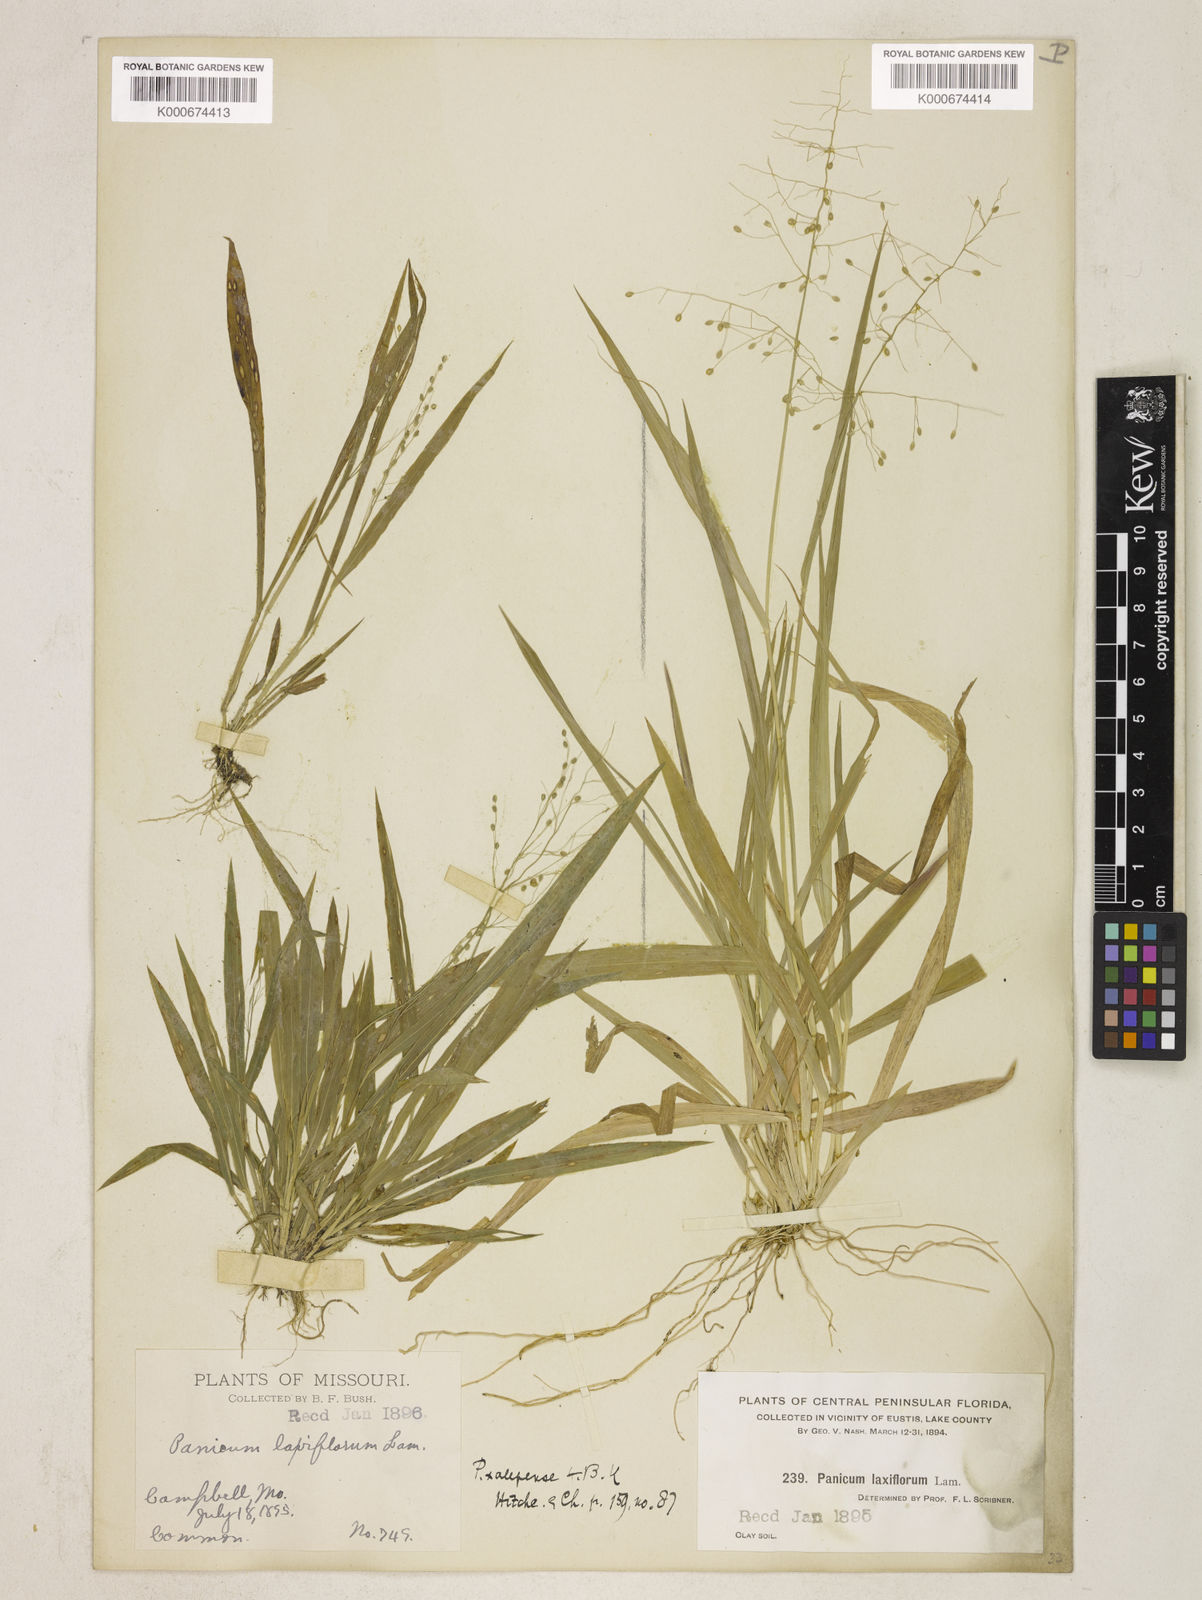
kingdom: Plantae
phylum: Tracheophyta
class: Liliopsida
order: Poales
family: Poaceae
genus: Dichanthelium
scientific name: Dichanthelium laxiflorum
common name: Soft-tuft panic grass
